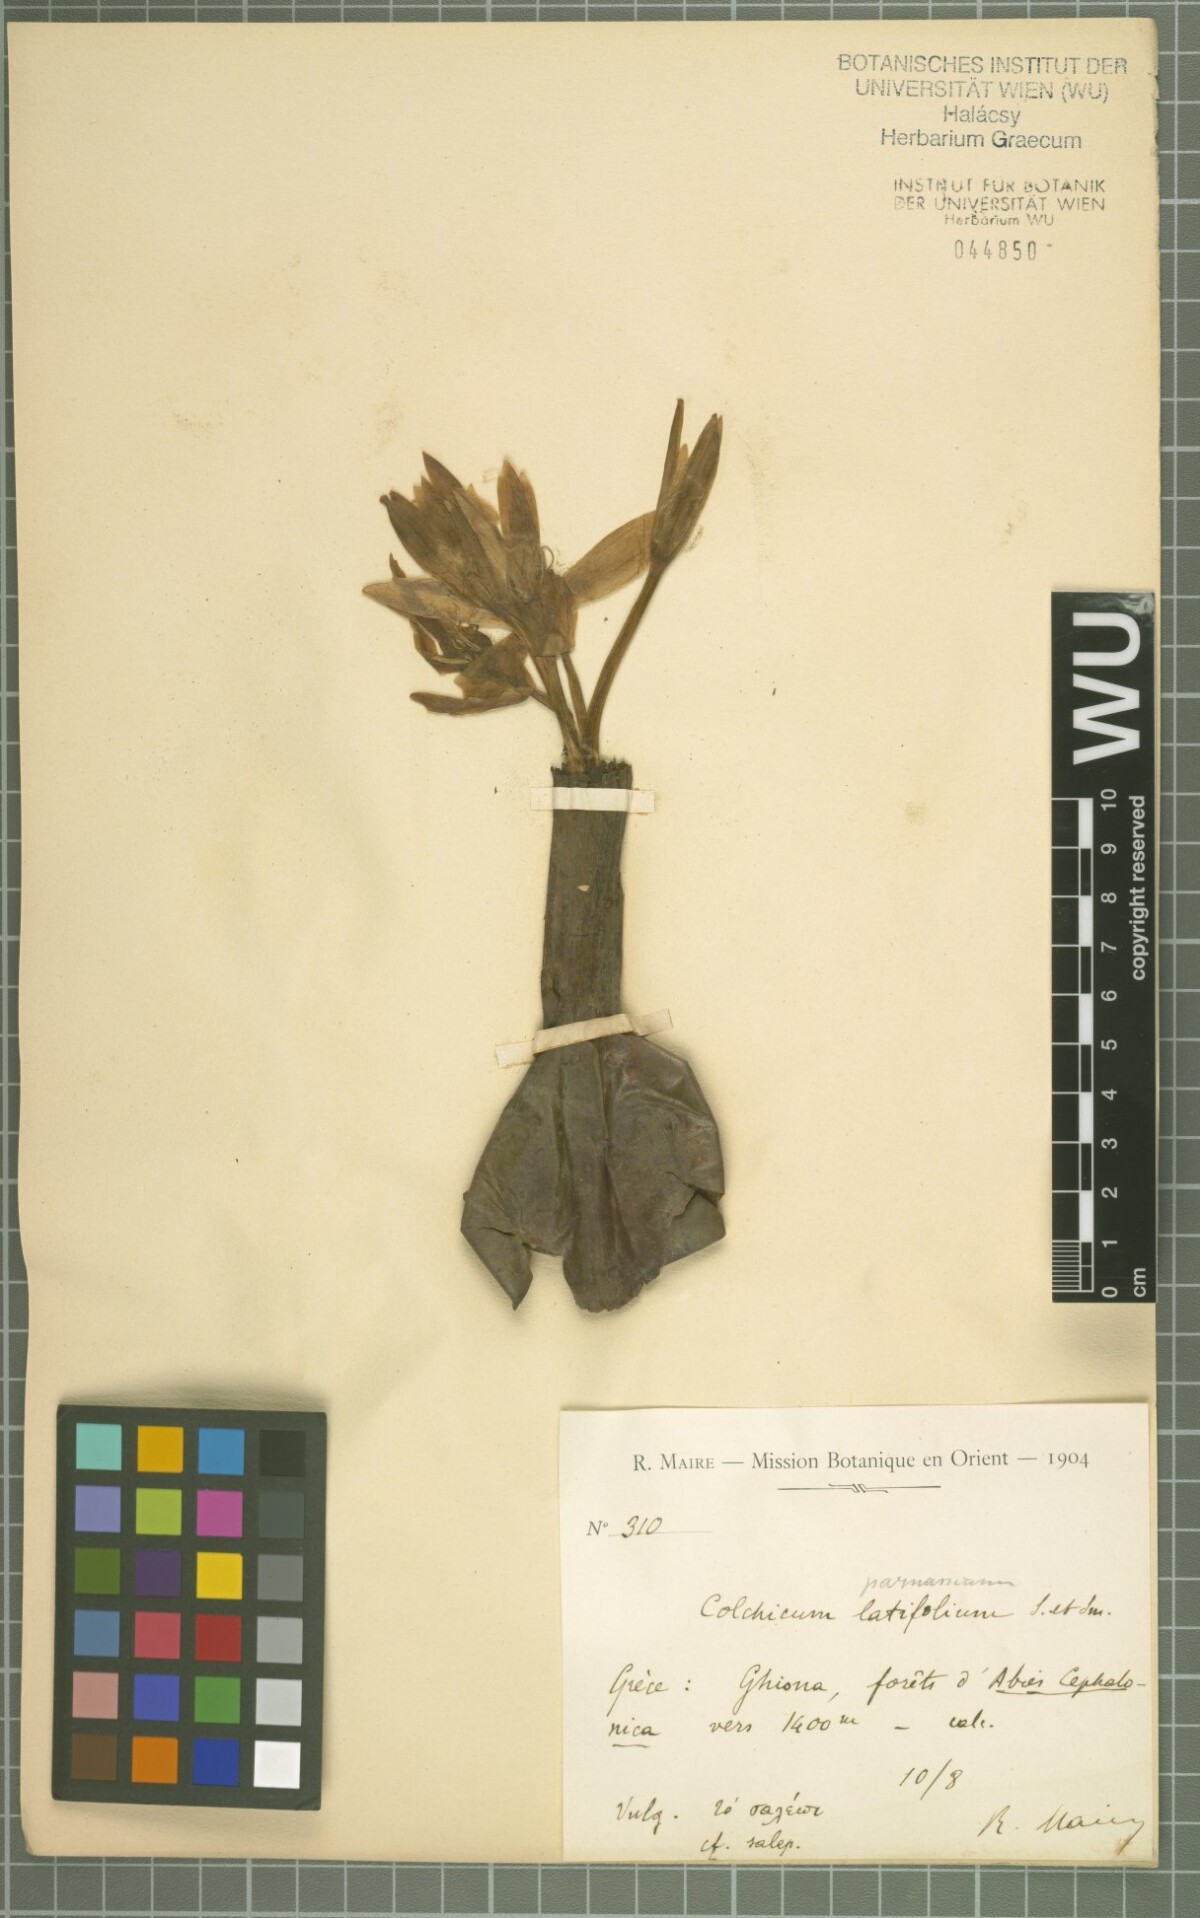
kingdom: Plantae
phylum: Tracheophyta
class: Liliopsida
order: Liliales
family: Colchicaceae
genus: Colchicum
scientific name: Colchicum graecum
